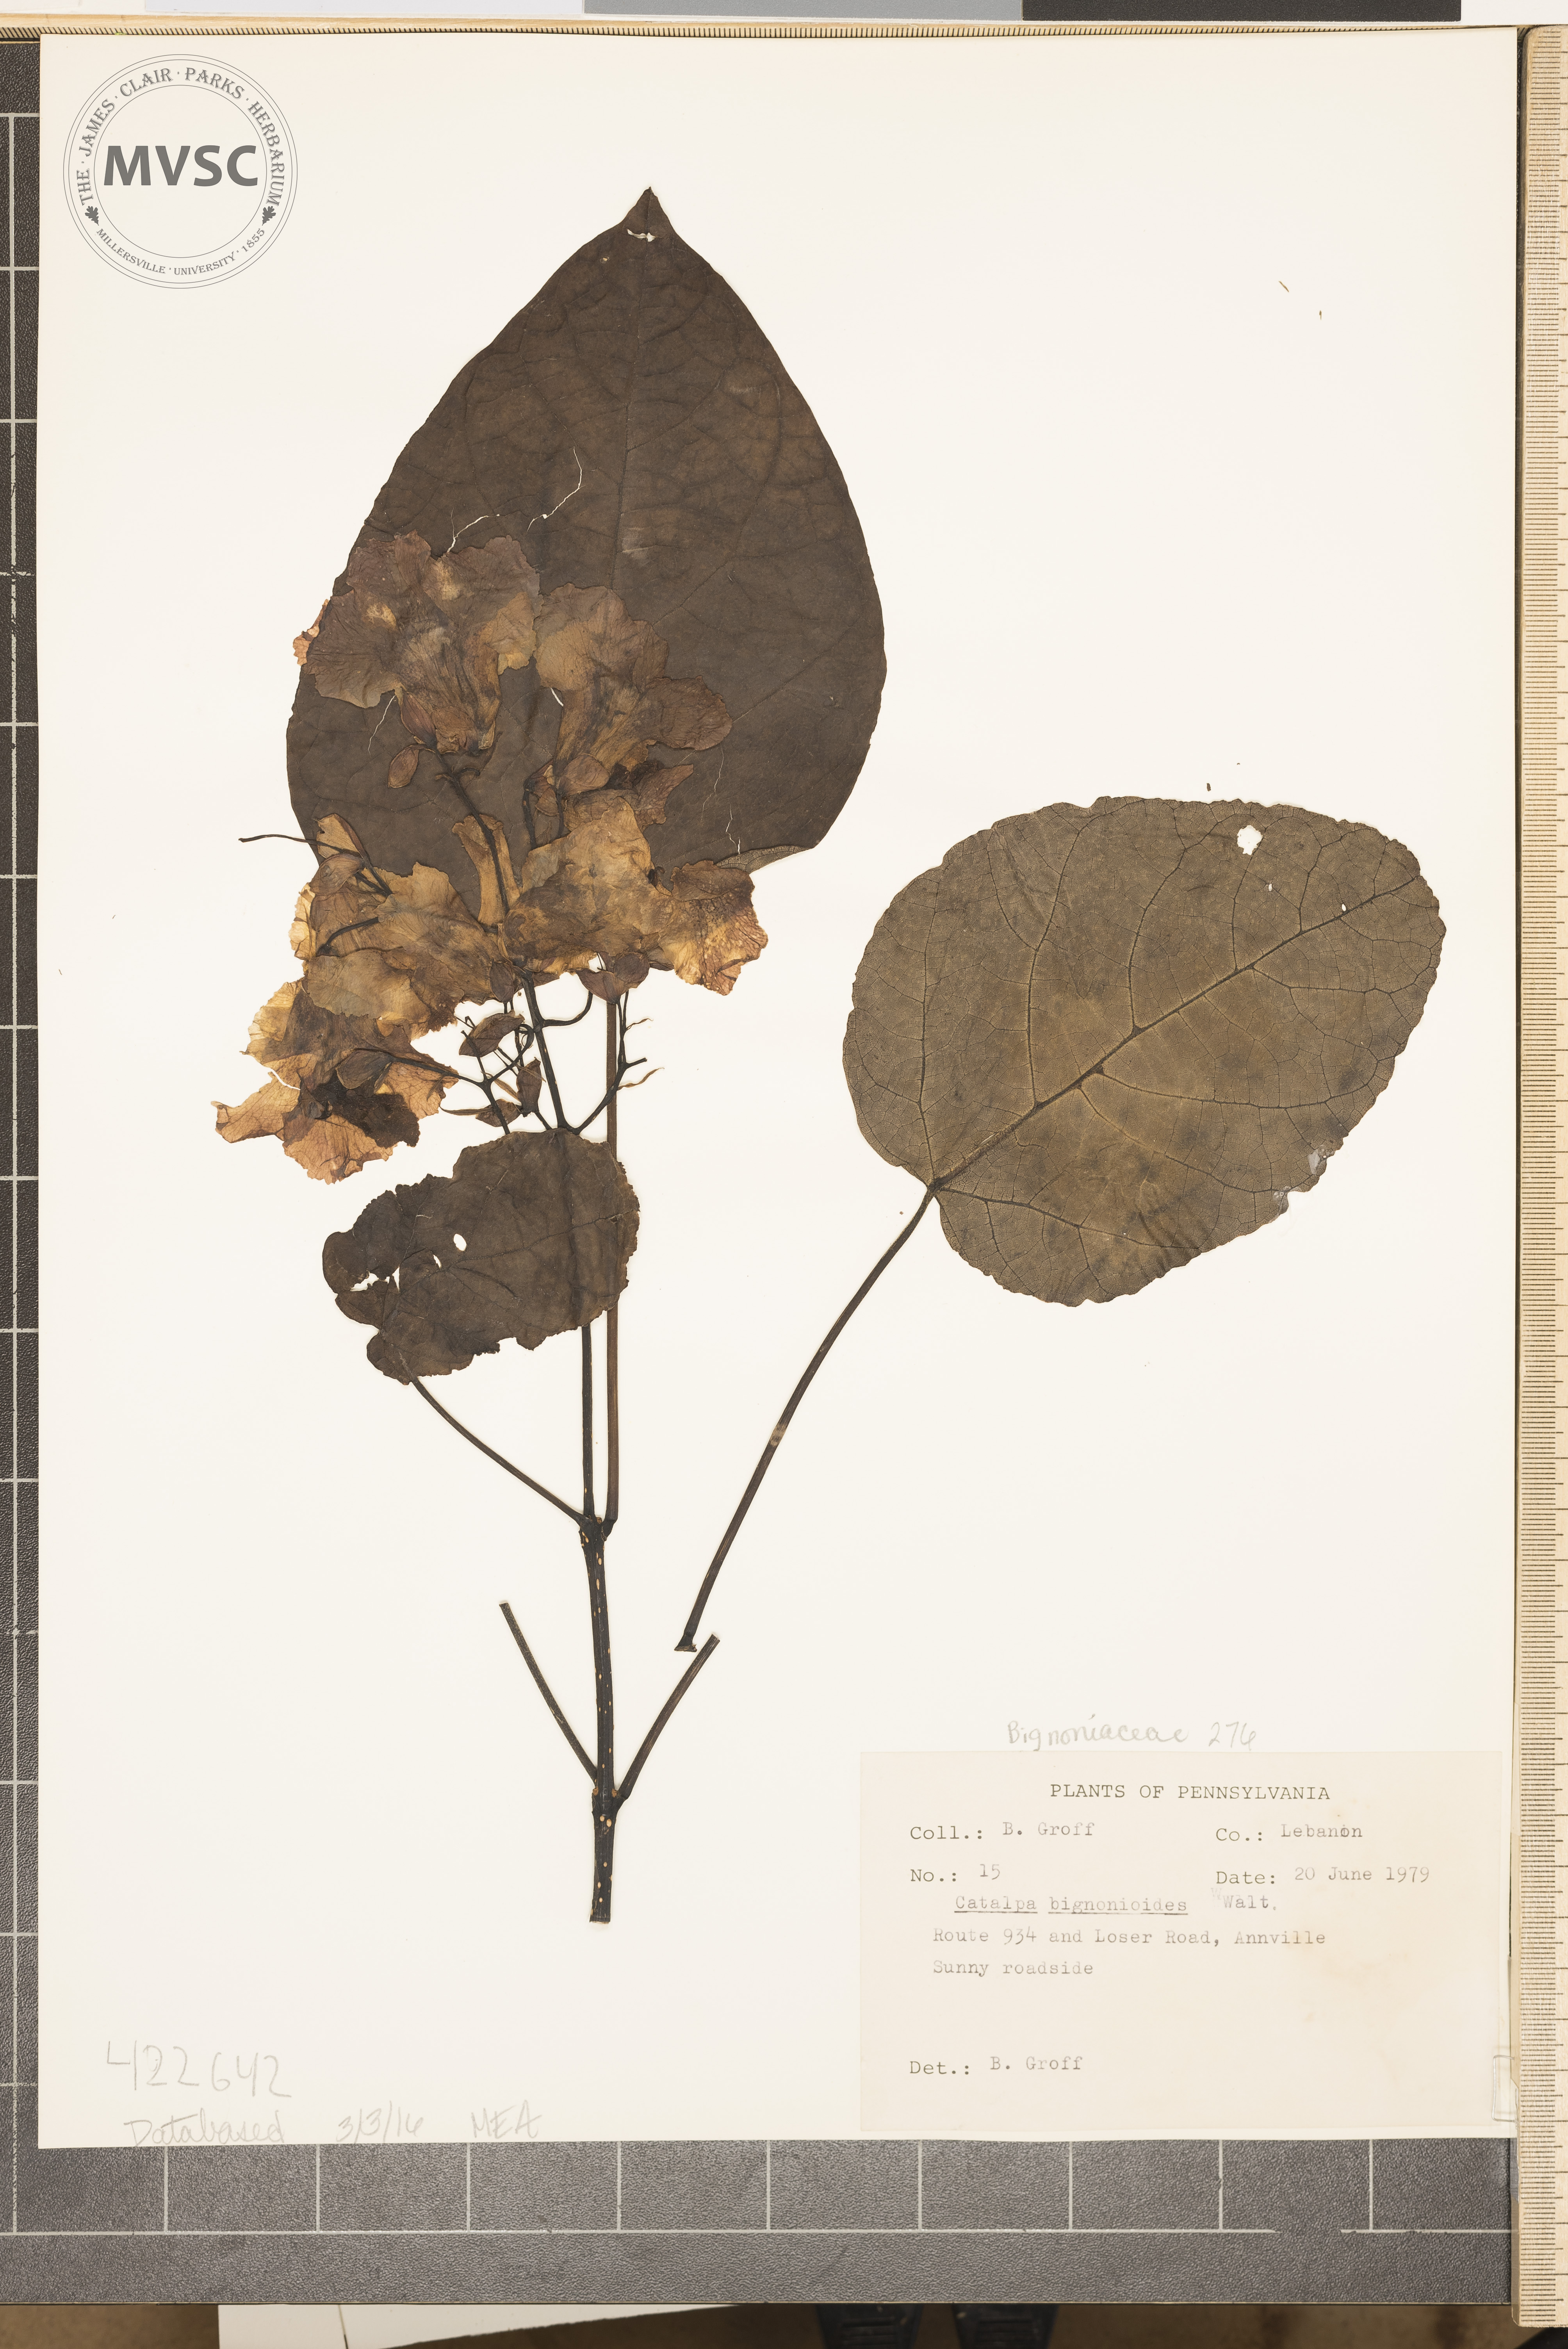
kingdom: Plantae
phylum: Tracheophyta
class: Magnoliopsida
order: Lamiales
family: Bignoniaceae
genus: Catalpa
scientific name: Catalpa bignonioides
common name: cigartree
